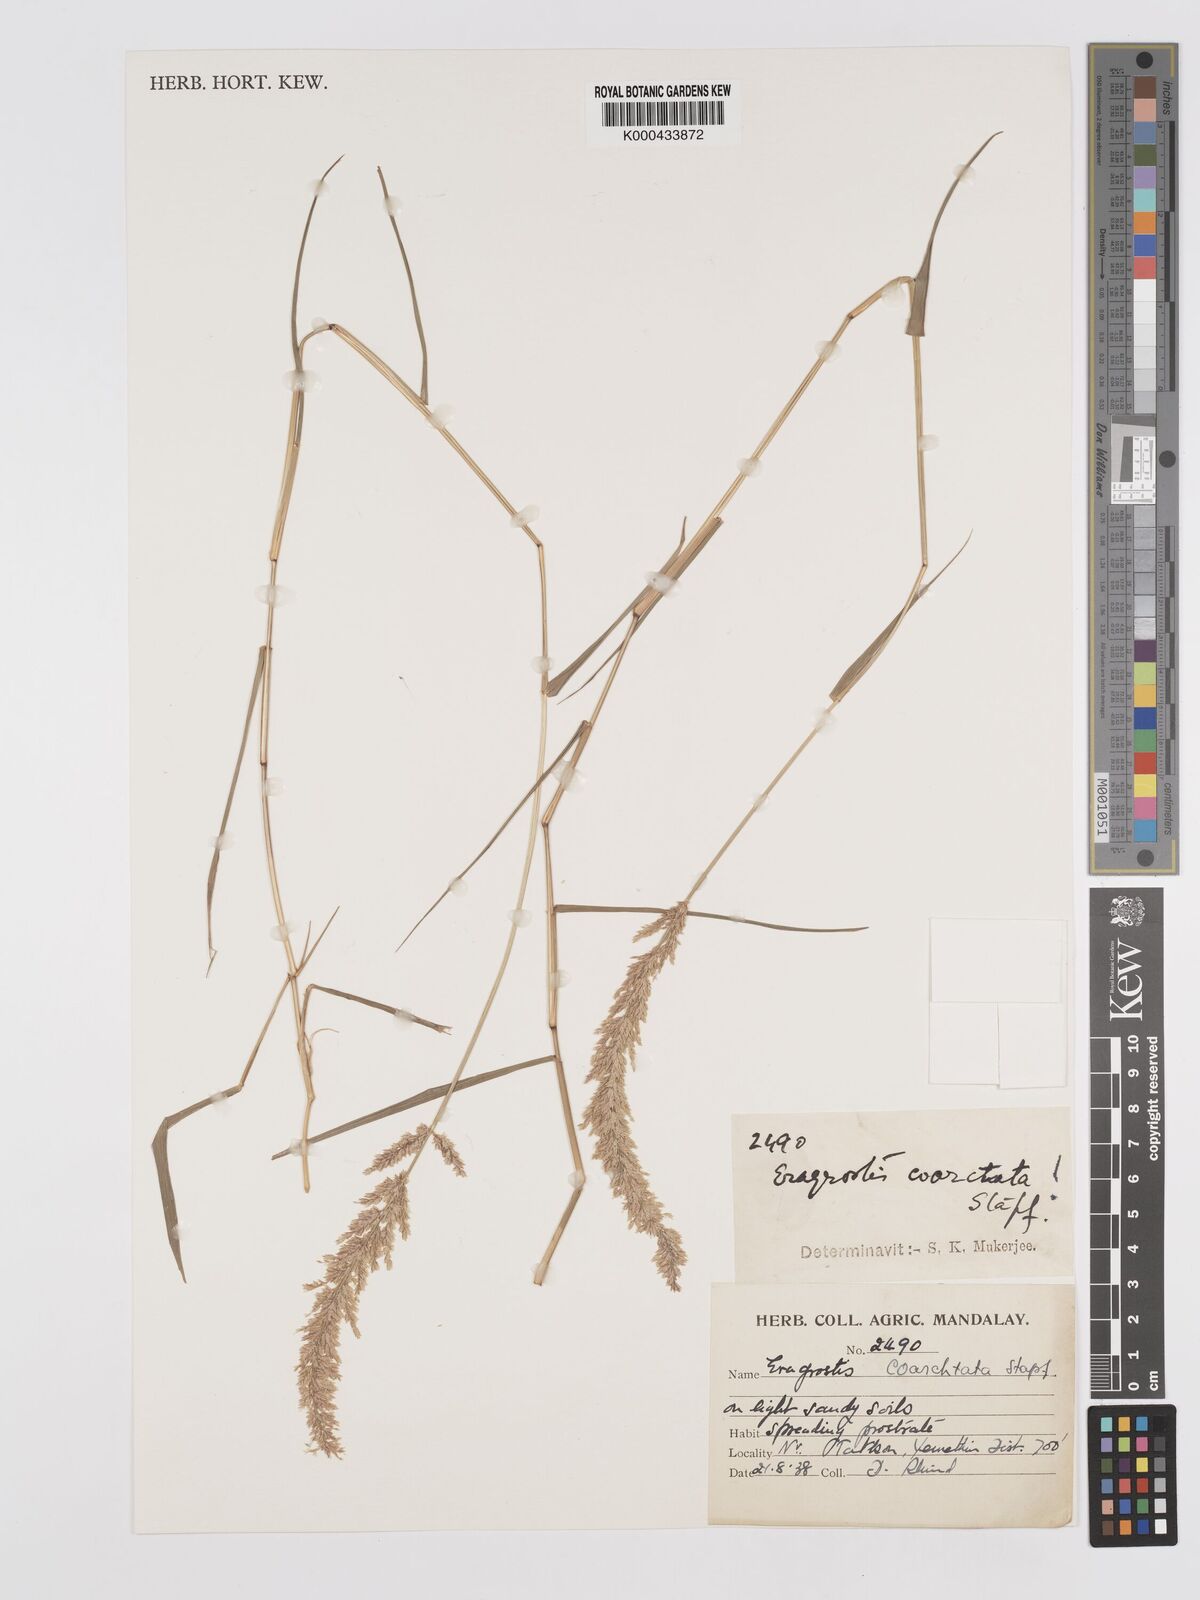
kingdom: Plantae
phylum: Tracheophyta
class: Liliopsida
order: Poales
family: Poaceae
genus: Eragrostis
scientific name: Eragrostis coarctata
